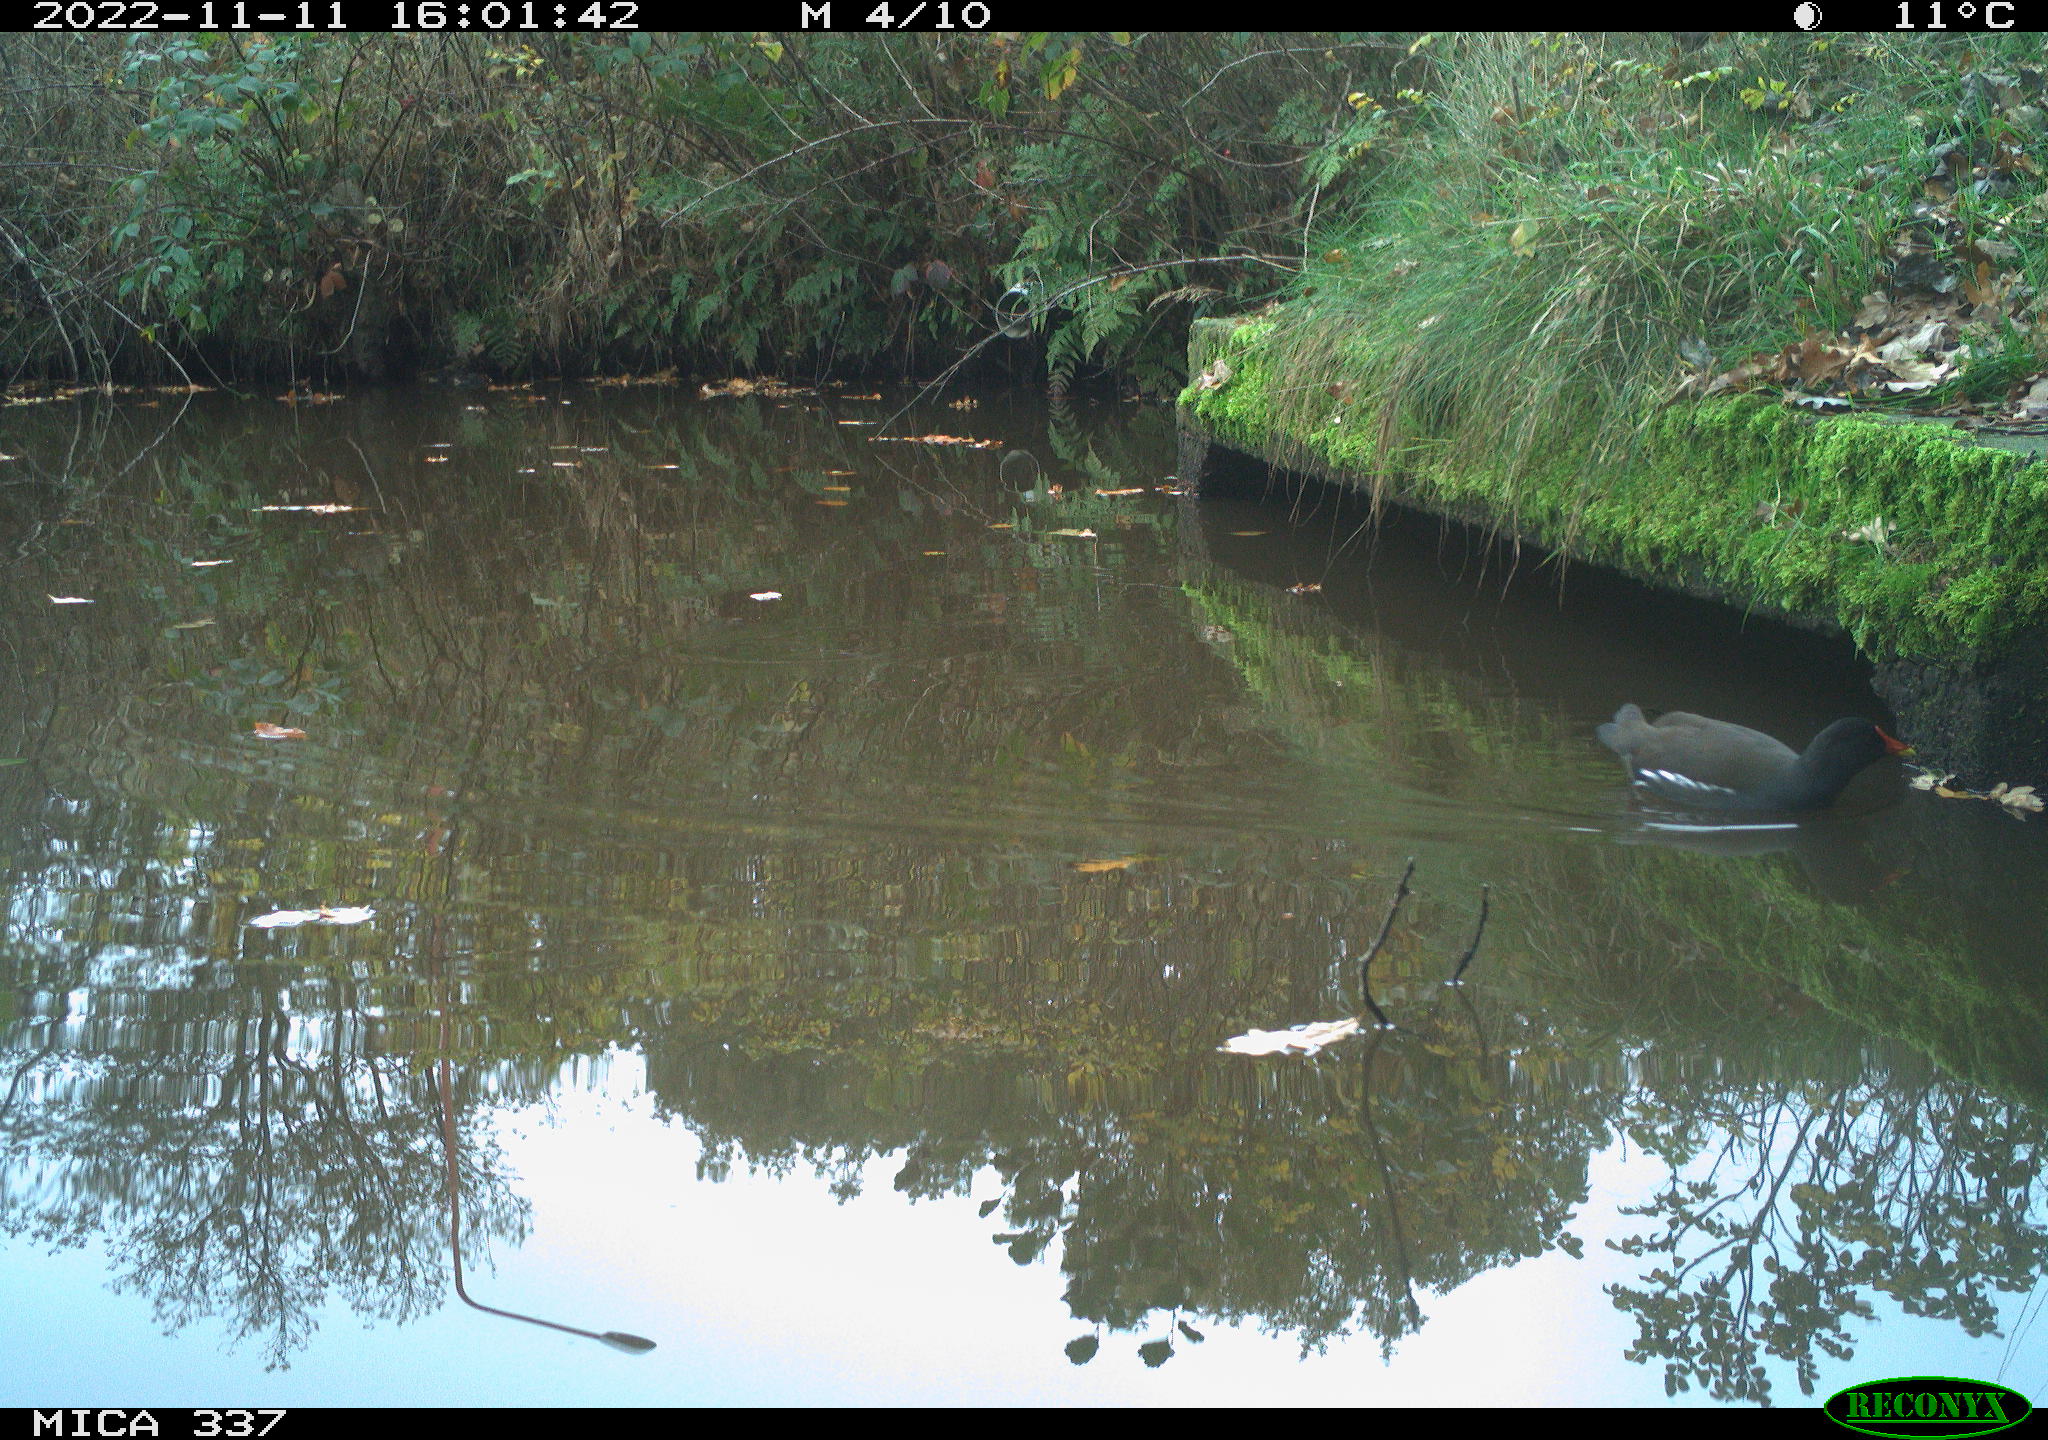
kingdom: Animalia
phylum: Chordata
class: Aves
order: Gruiformes
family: Rallidae
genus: Gallinula
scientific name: Gallinula chloropus
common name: Common moorhen
